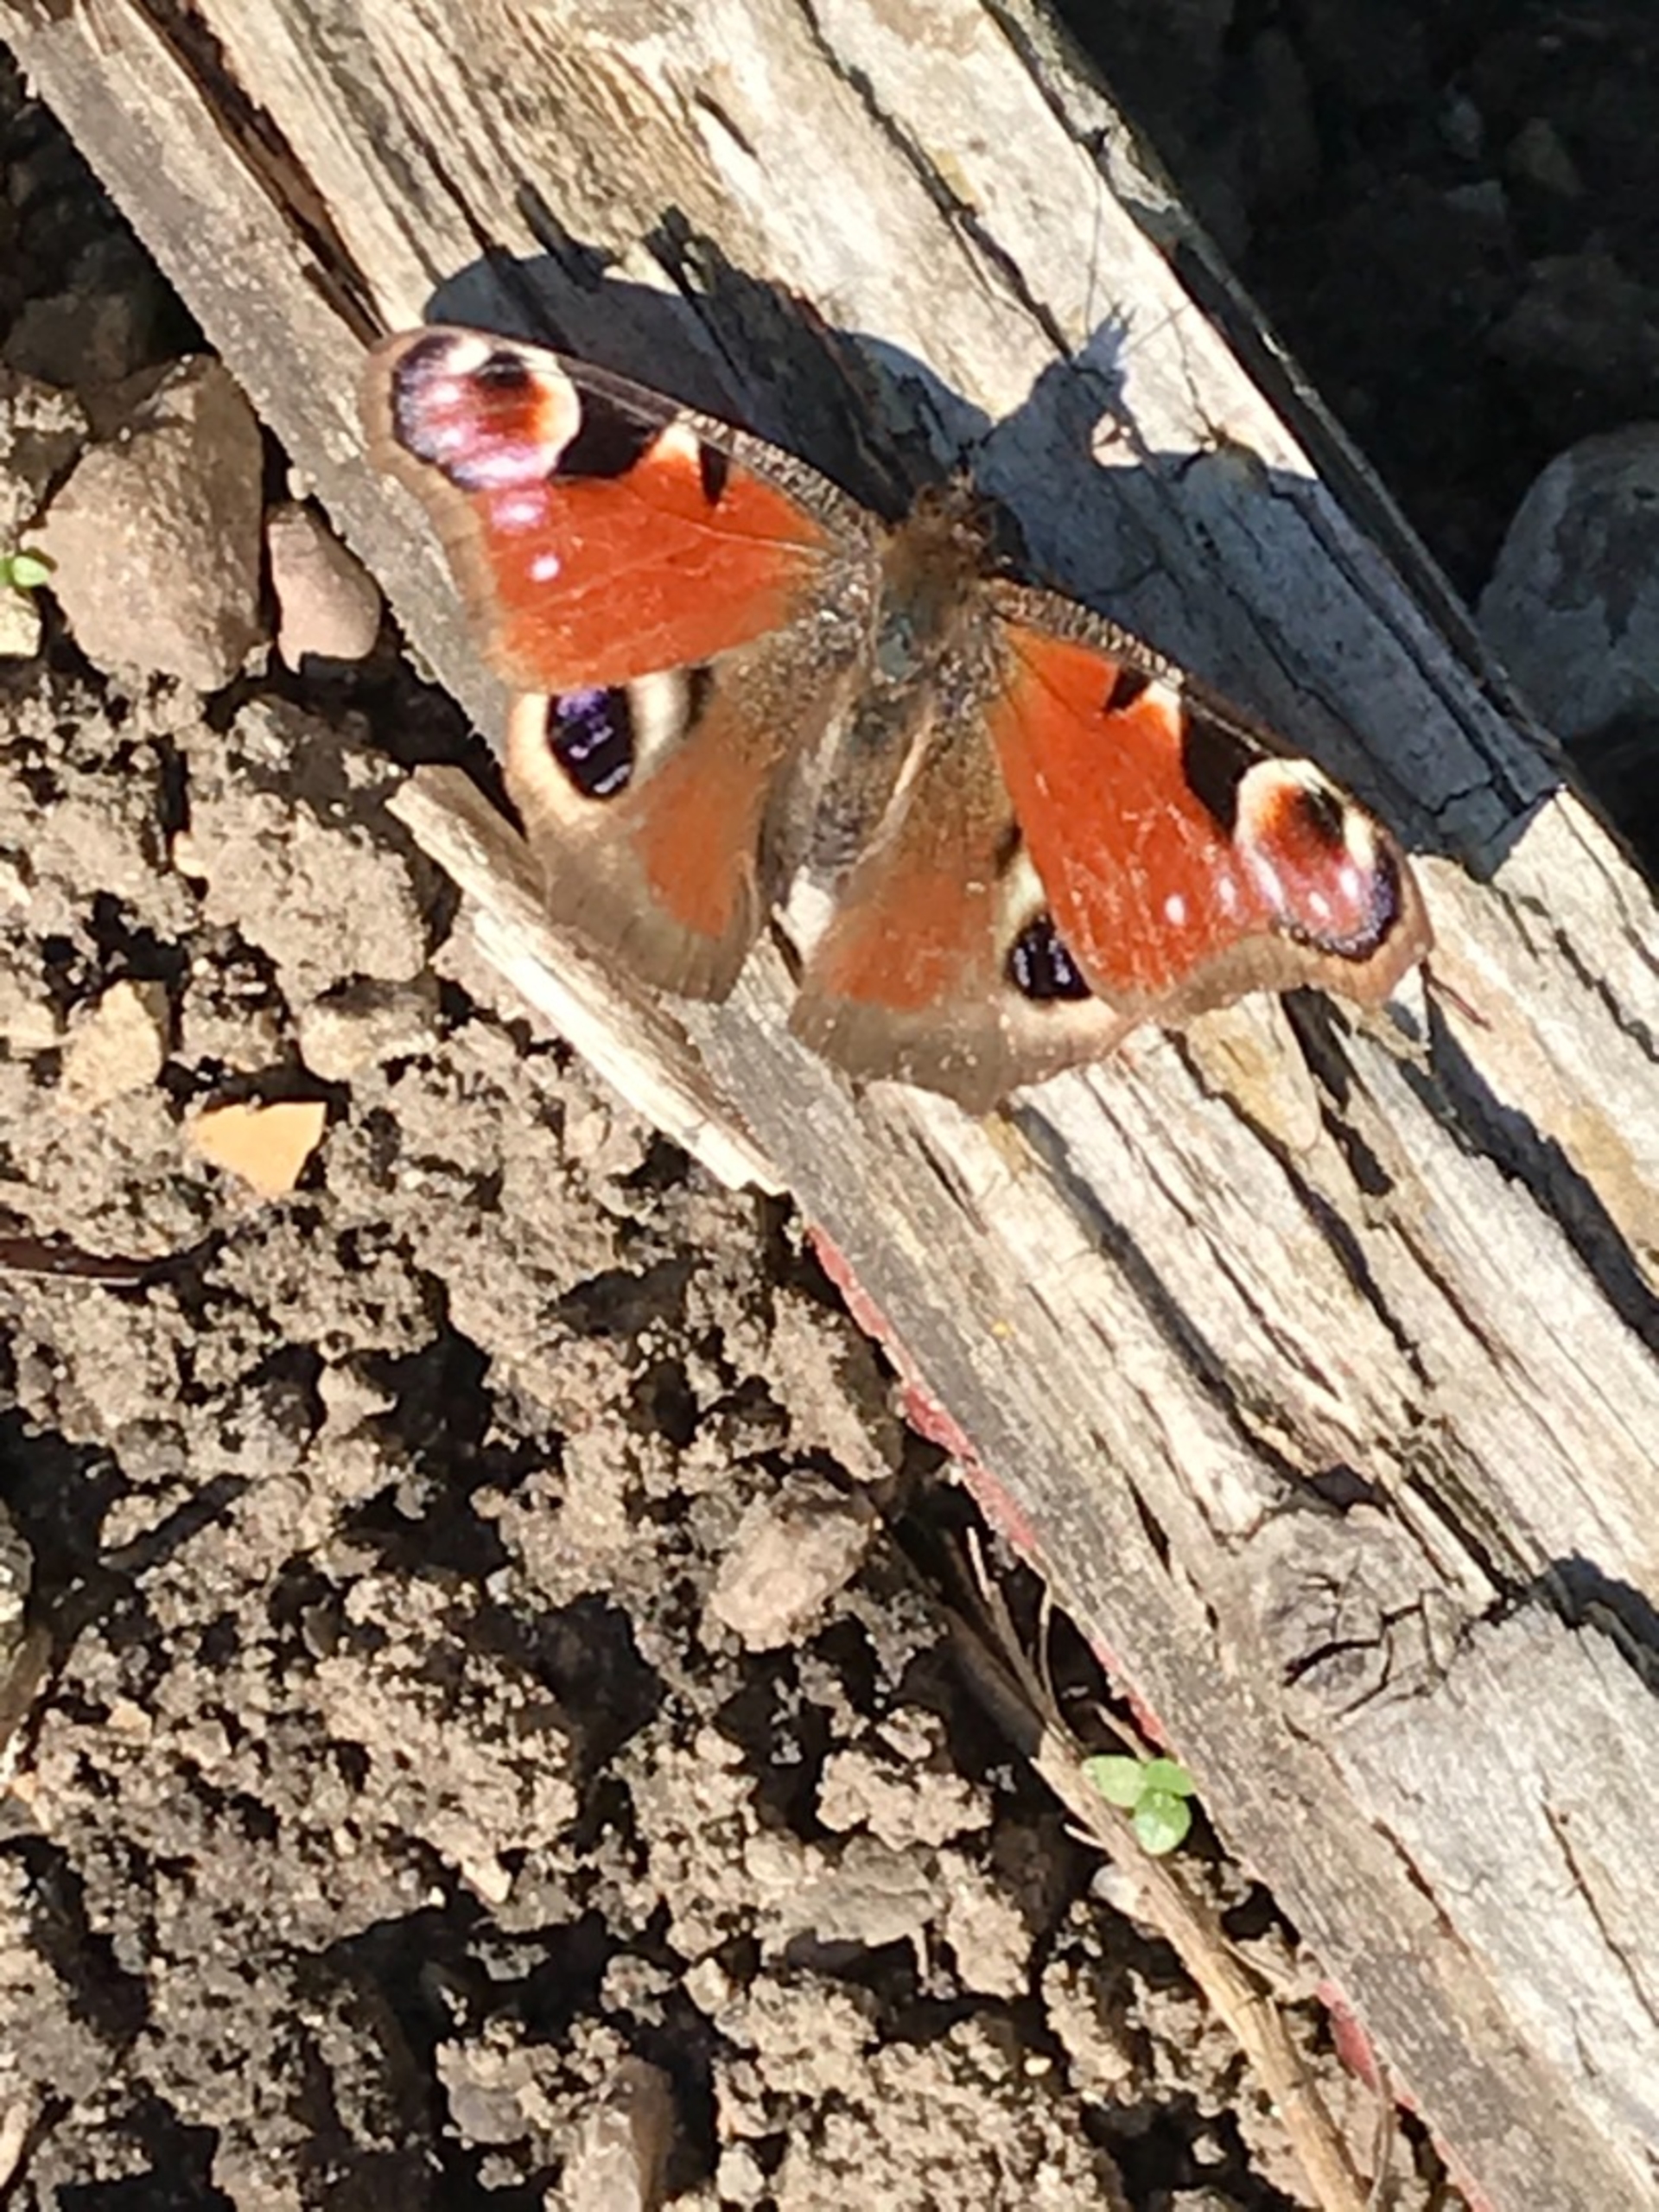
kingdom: Animalia
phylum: Arthropoda
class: Insecta
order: Lepidoptera
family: Nymphalidae
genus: Aglais
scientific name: Aglais io
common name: Dagpåfugleøje
